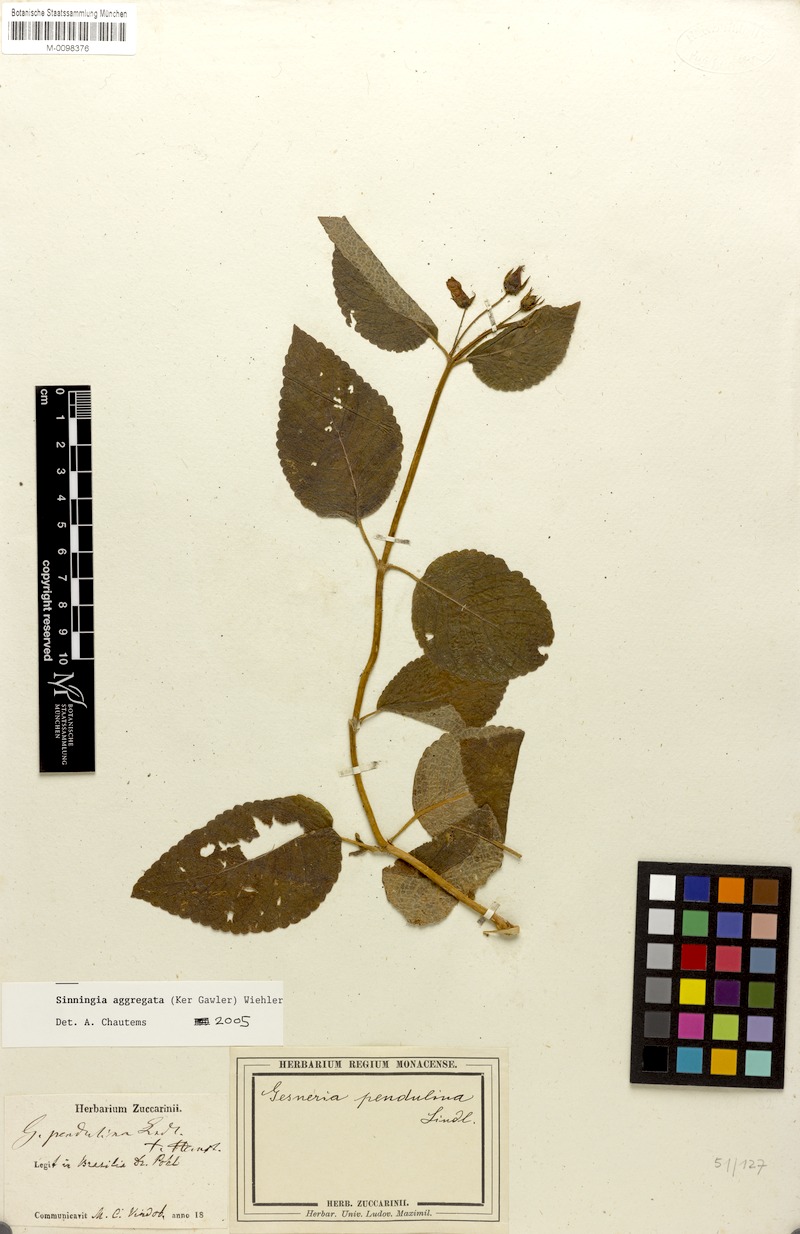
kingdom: Plantae
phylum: Tracheophyta
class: Magnoliopsida
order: Lamiales
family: Gesneriaceae
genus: Sinningia
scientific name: Sinningia aggregata
